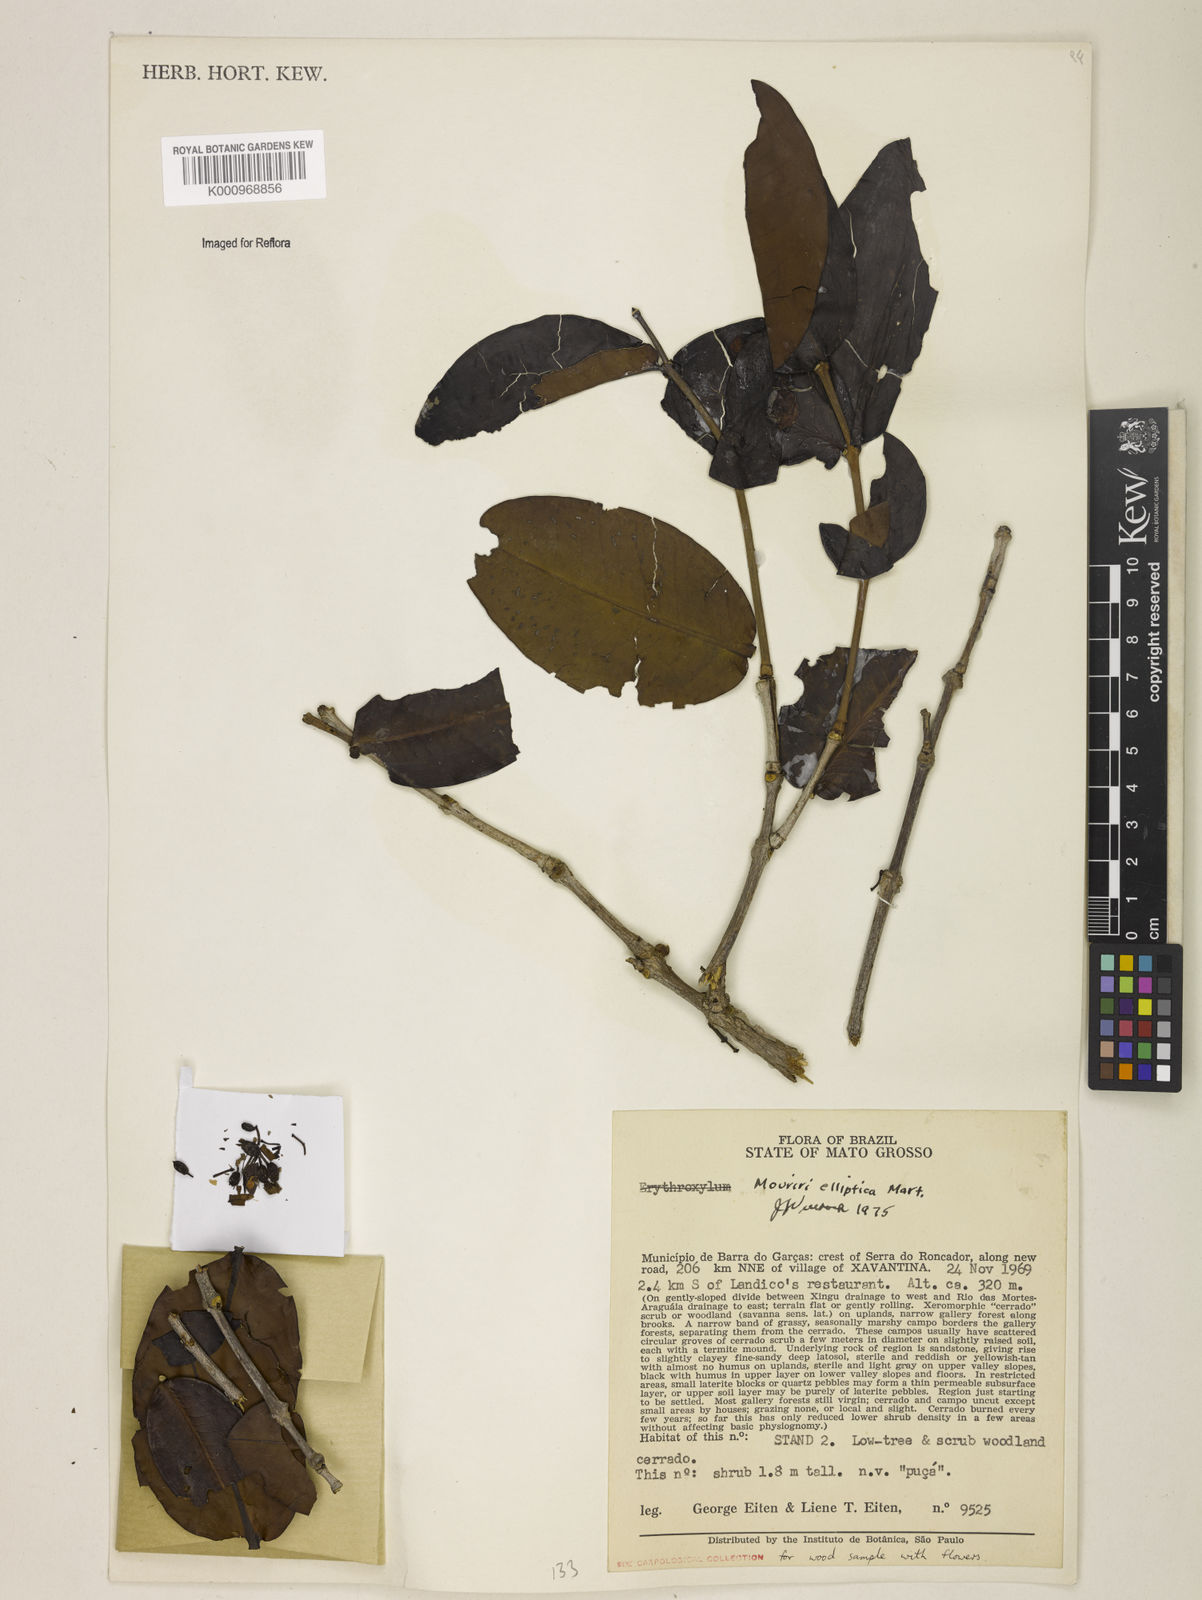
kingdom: Plantae
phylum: Tracheophyta
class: Magnoliopsida
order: Myrtales
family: Melastomataceae
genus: Mouriri
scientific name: Mouriri elliptica
